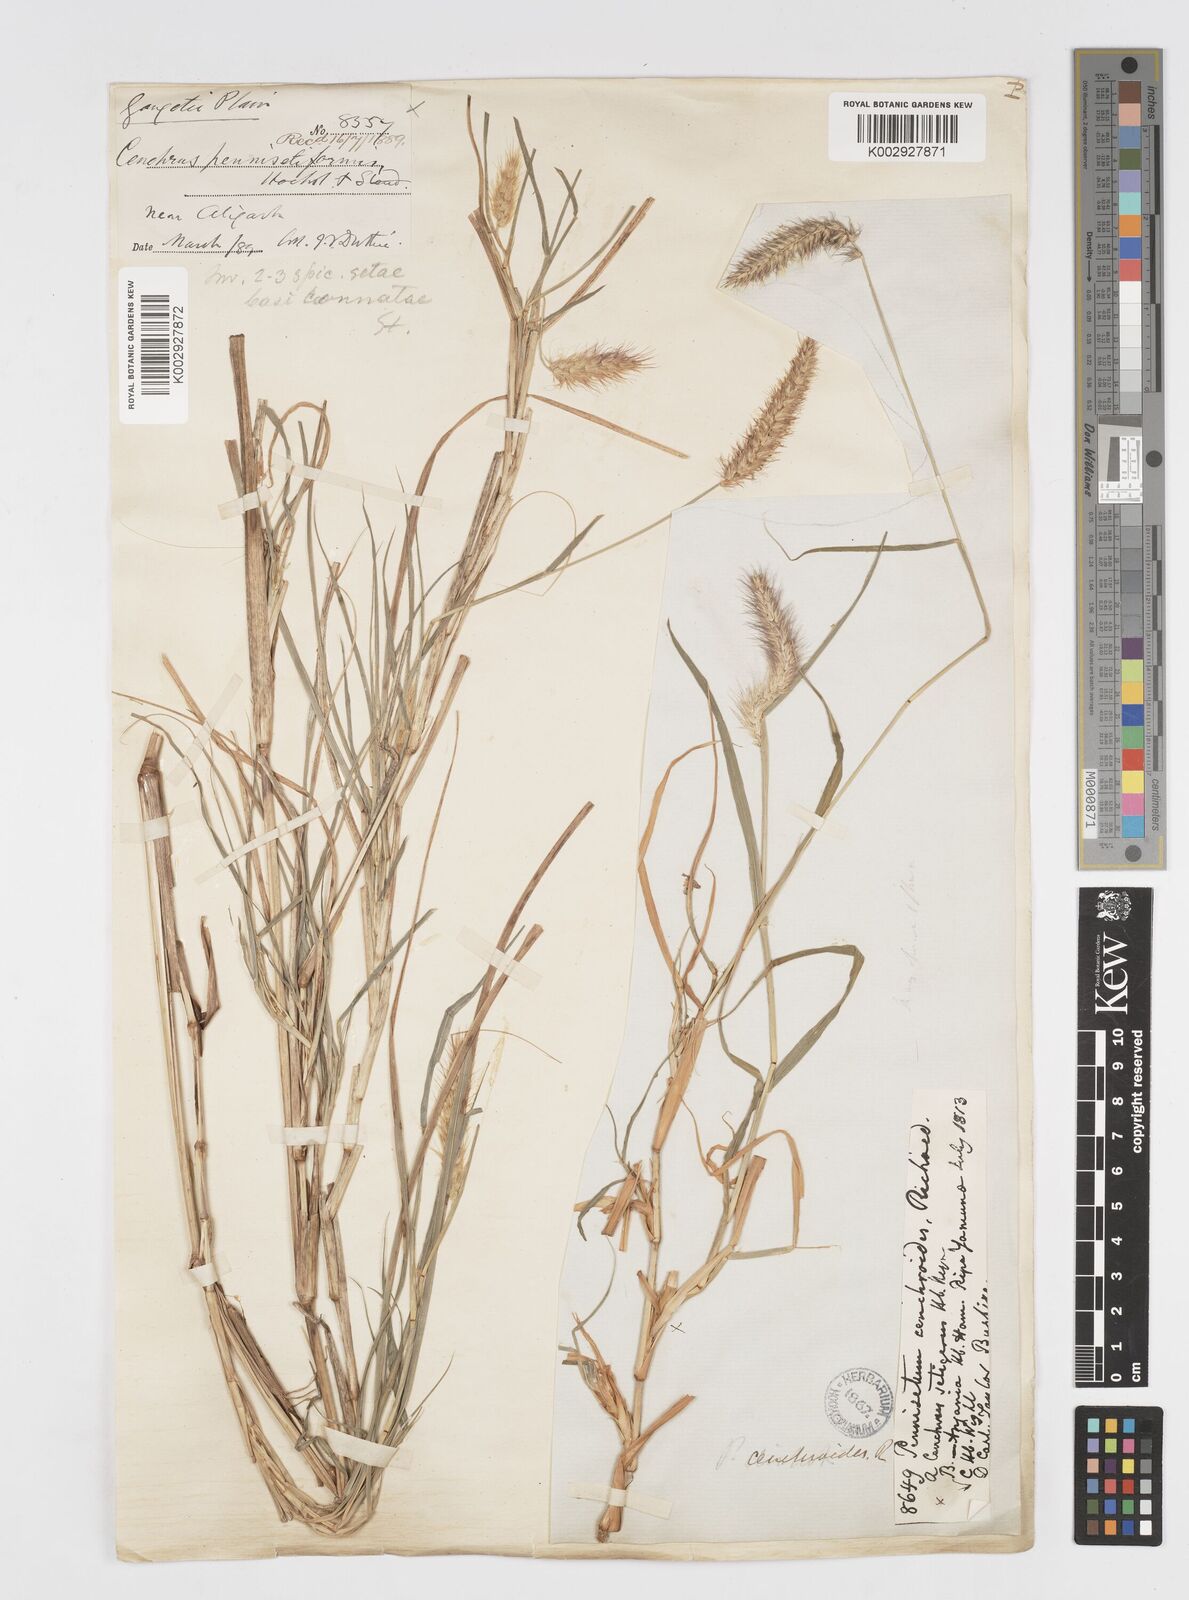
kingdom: Plantae
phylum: Tracheophyta
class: Liliopsida
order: Poales
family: Poaceae
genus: Cenchrus
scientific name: Cenchrus ciliaris
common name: Buffelgrass
